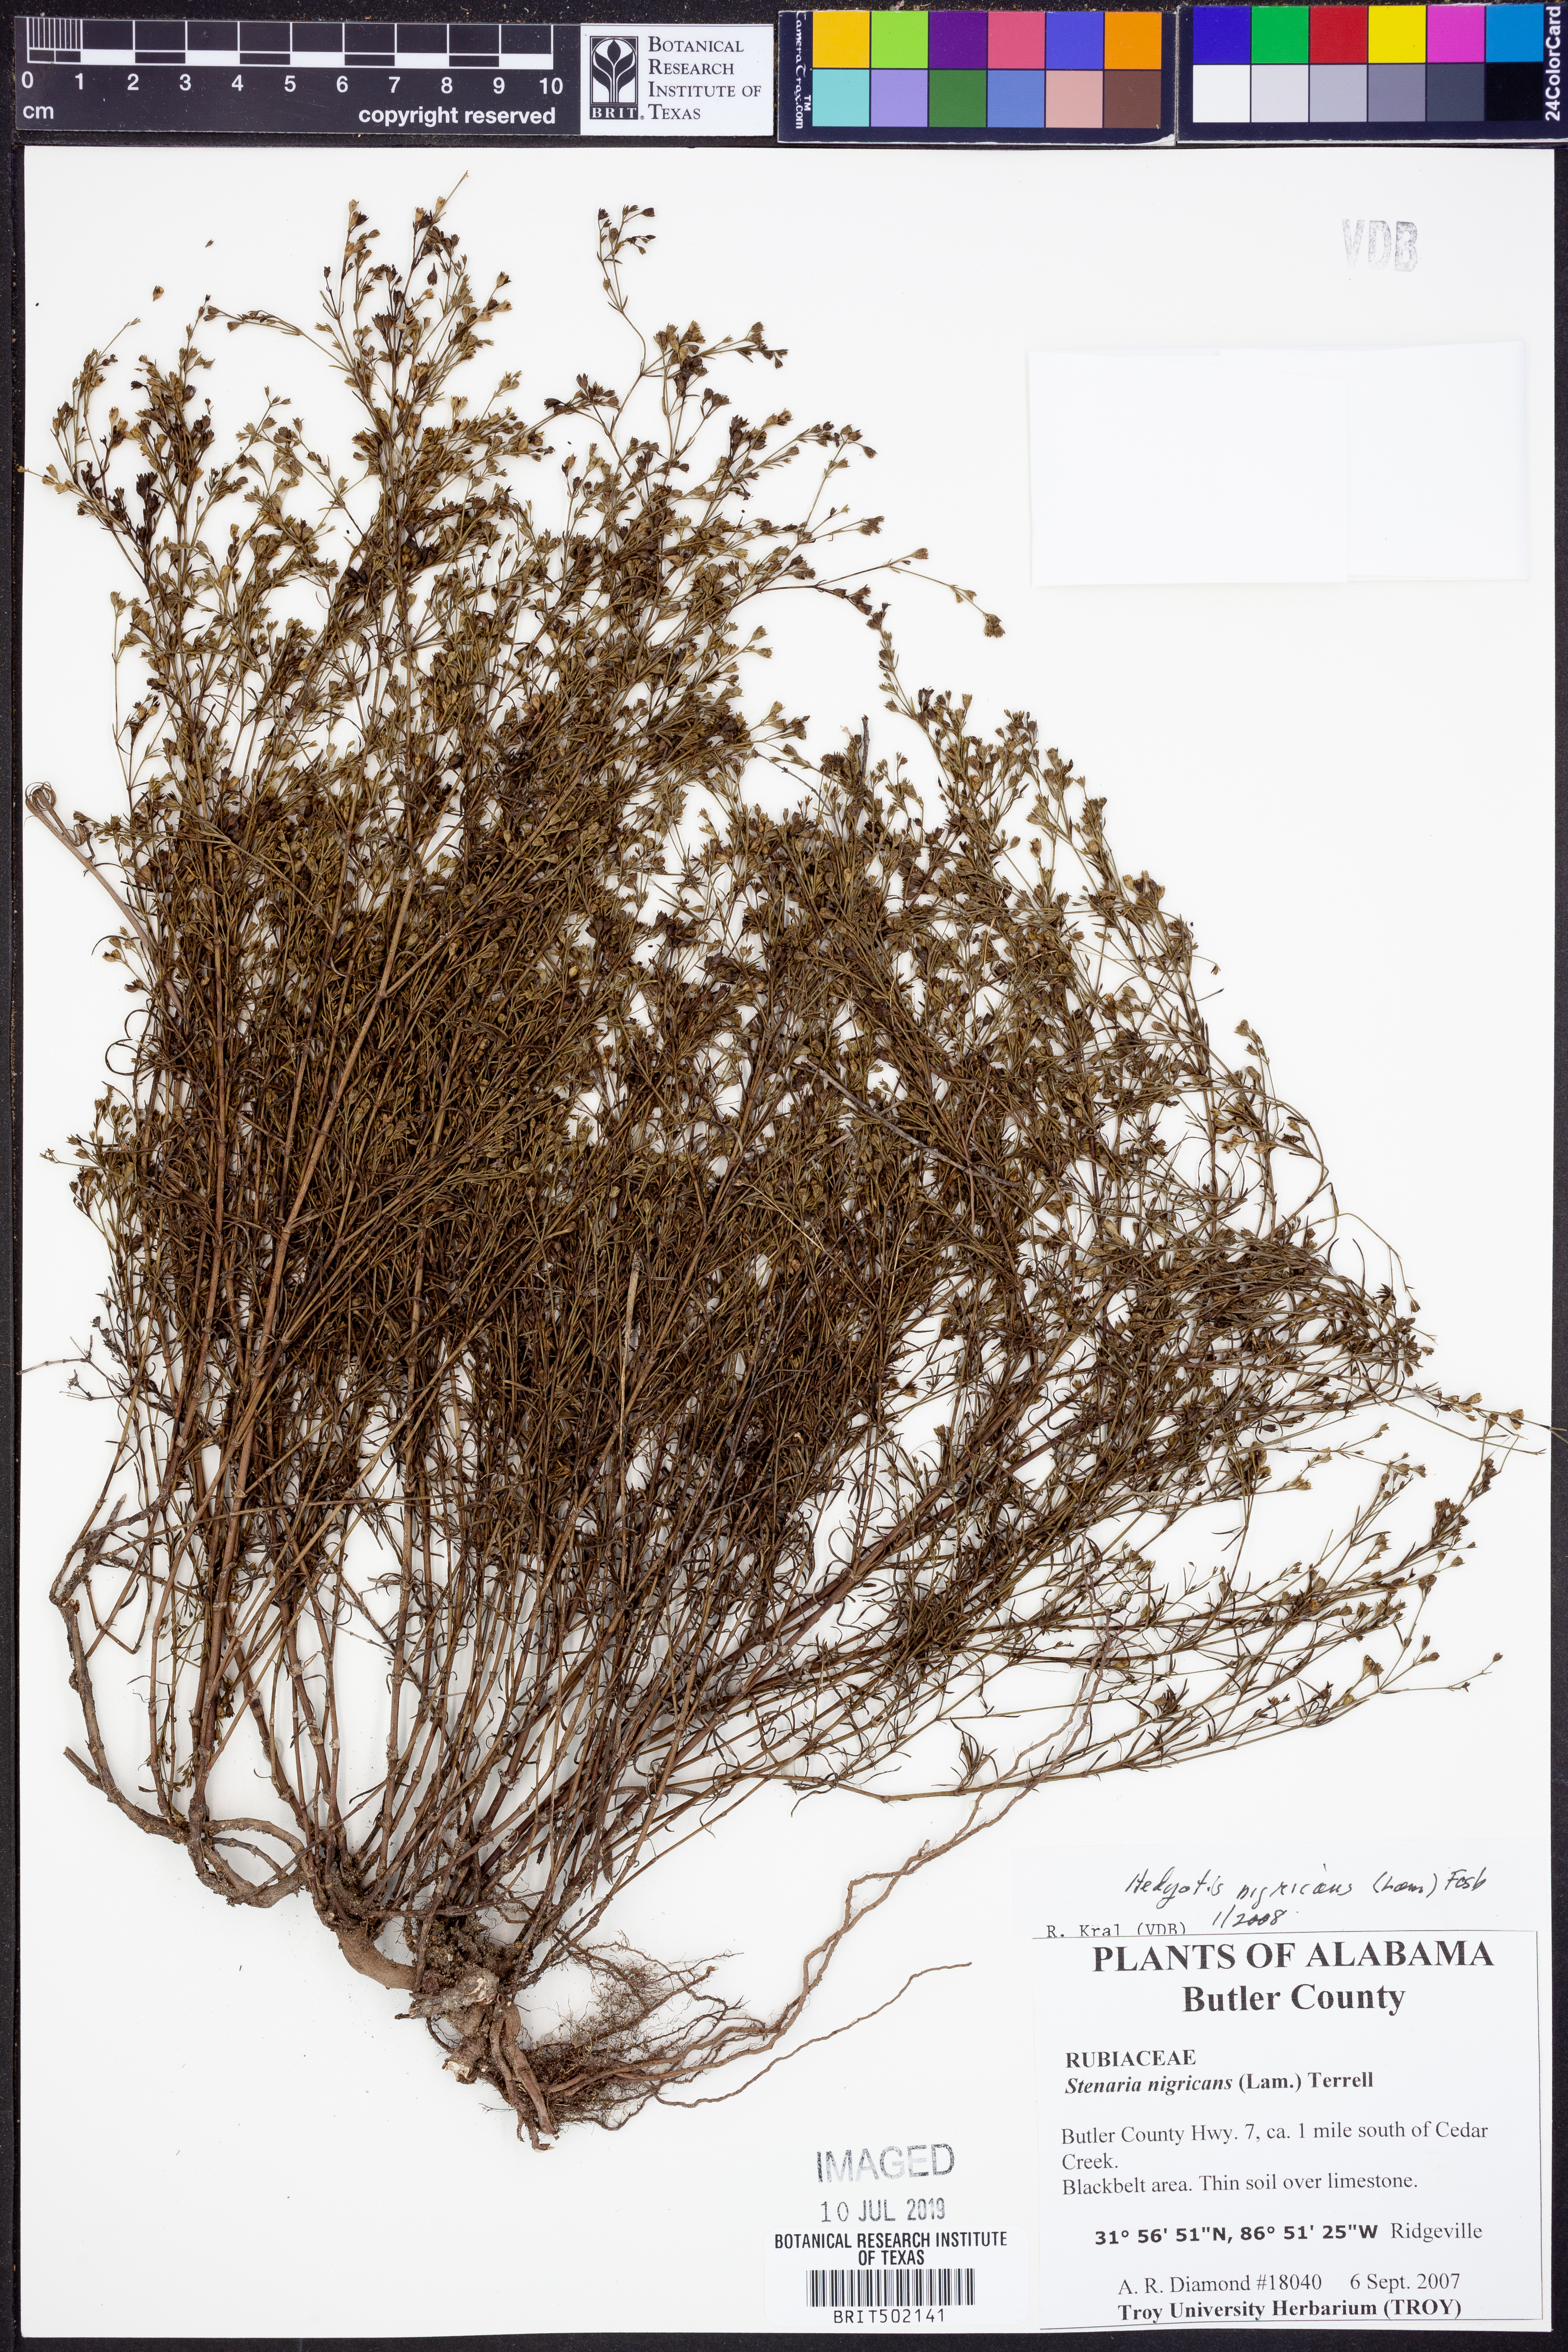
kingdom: Plantae
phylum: Tracheophyta
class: Magnoliopsida
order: Gentianales
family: Rubiaceae
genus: Stenaria
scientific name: Stenaria nigricans
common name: Diamondflowers
